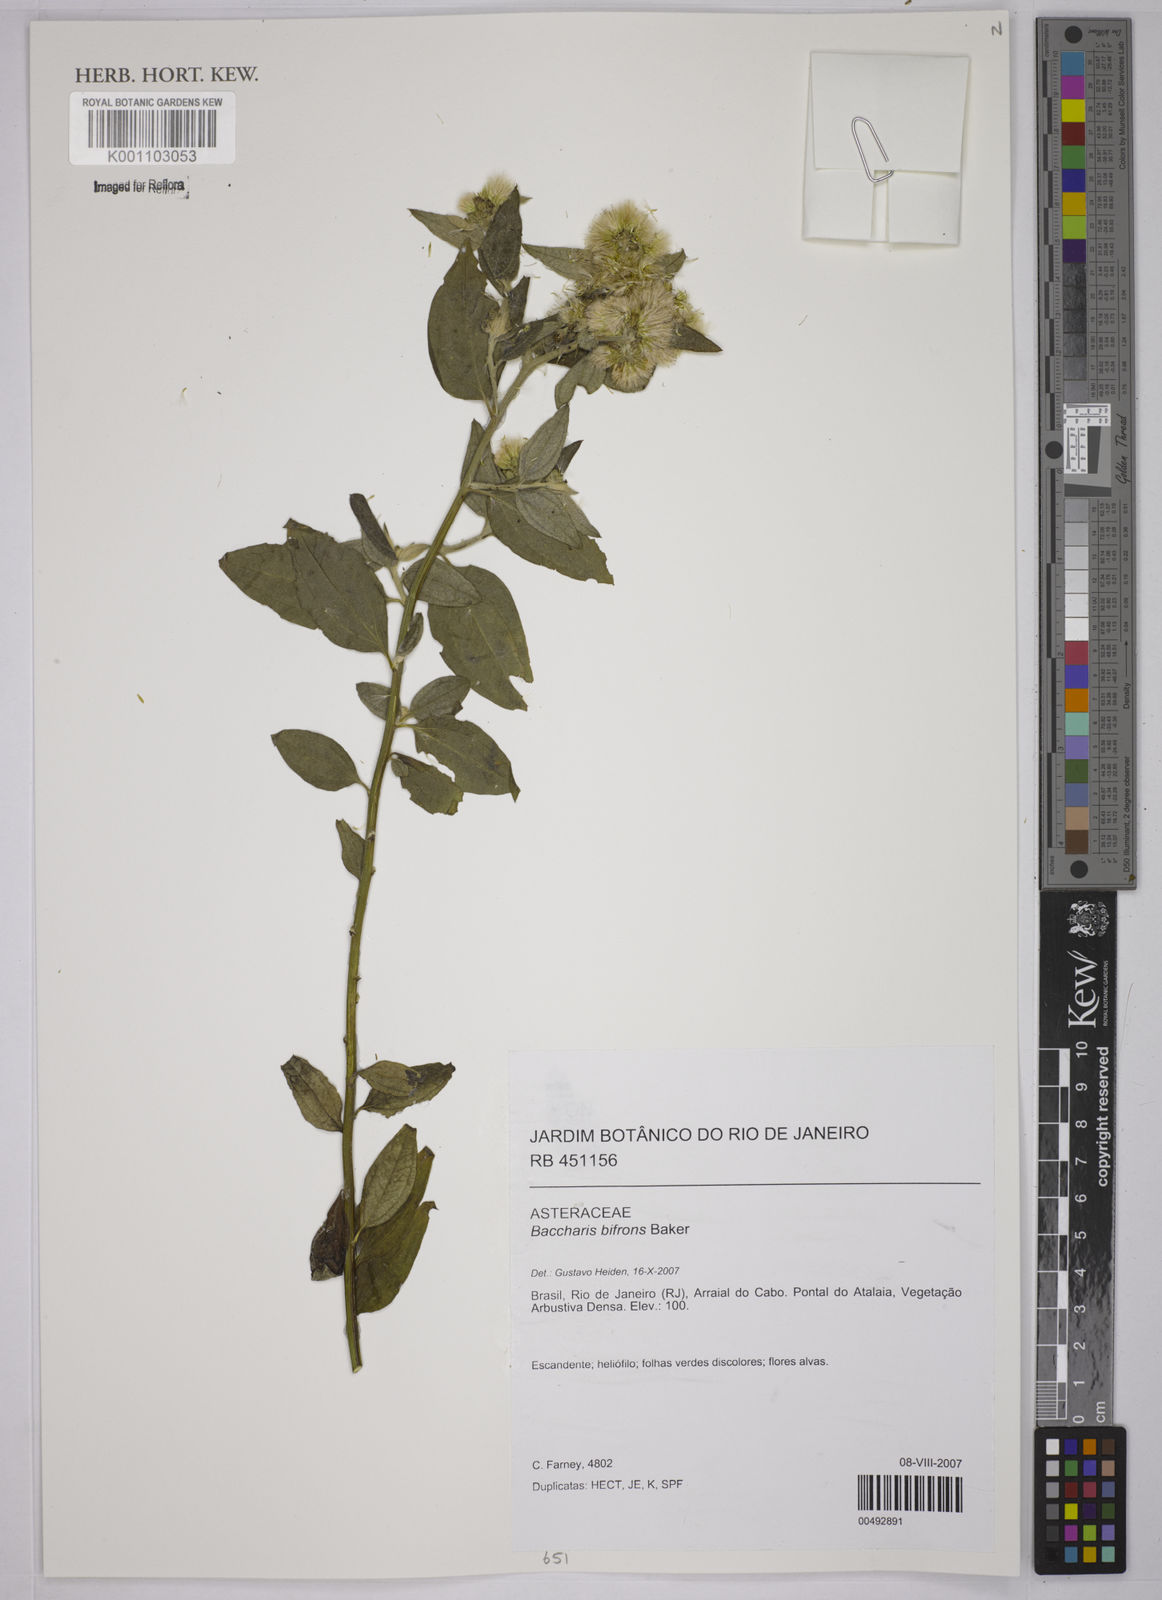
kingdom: Plantae
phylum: Tracheophyta
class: Magnoliopsida
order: Asterales
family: Asteraceae
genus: Baccharis
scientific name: Baccharis bifrons
